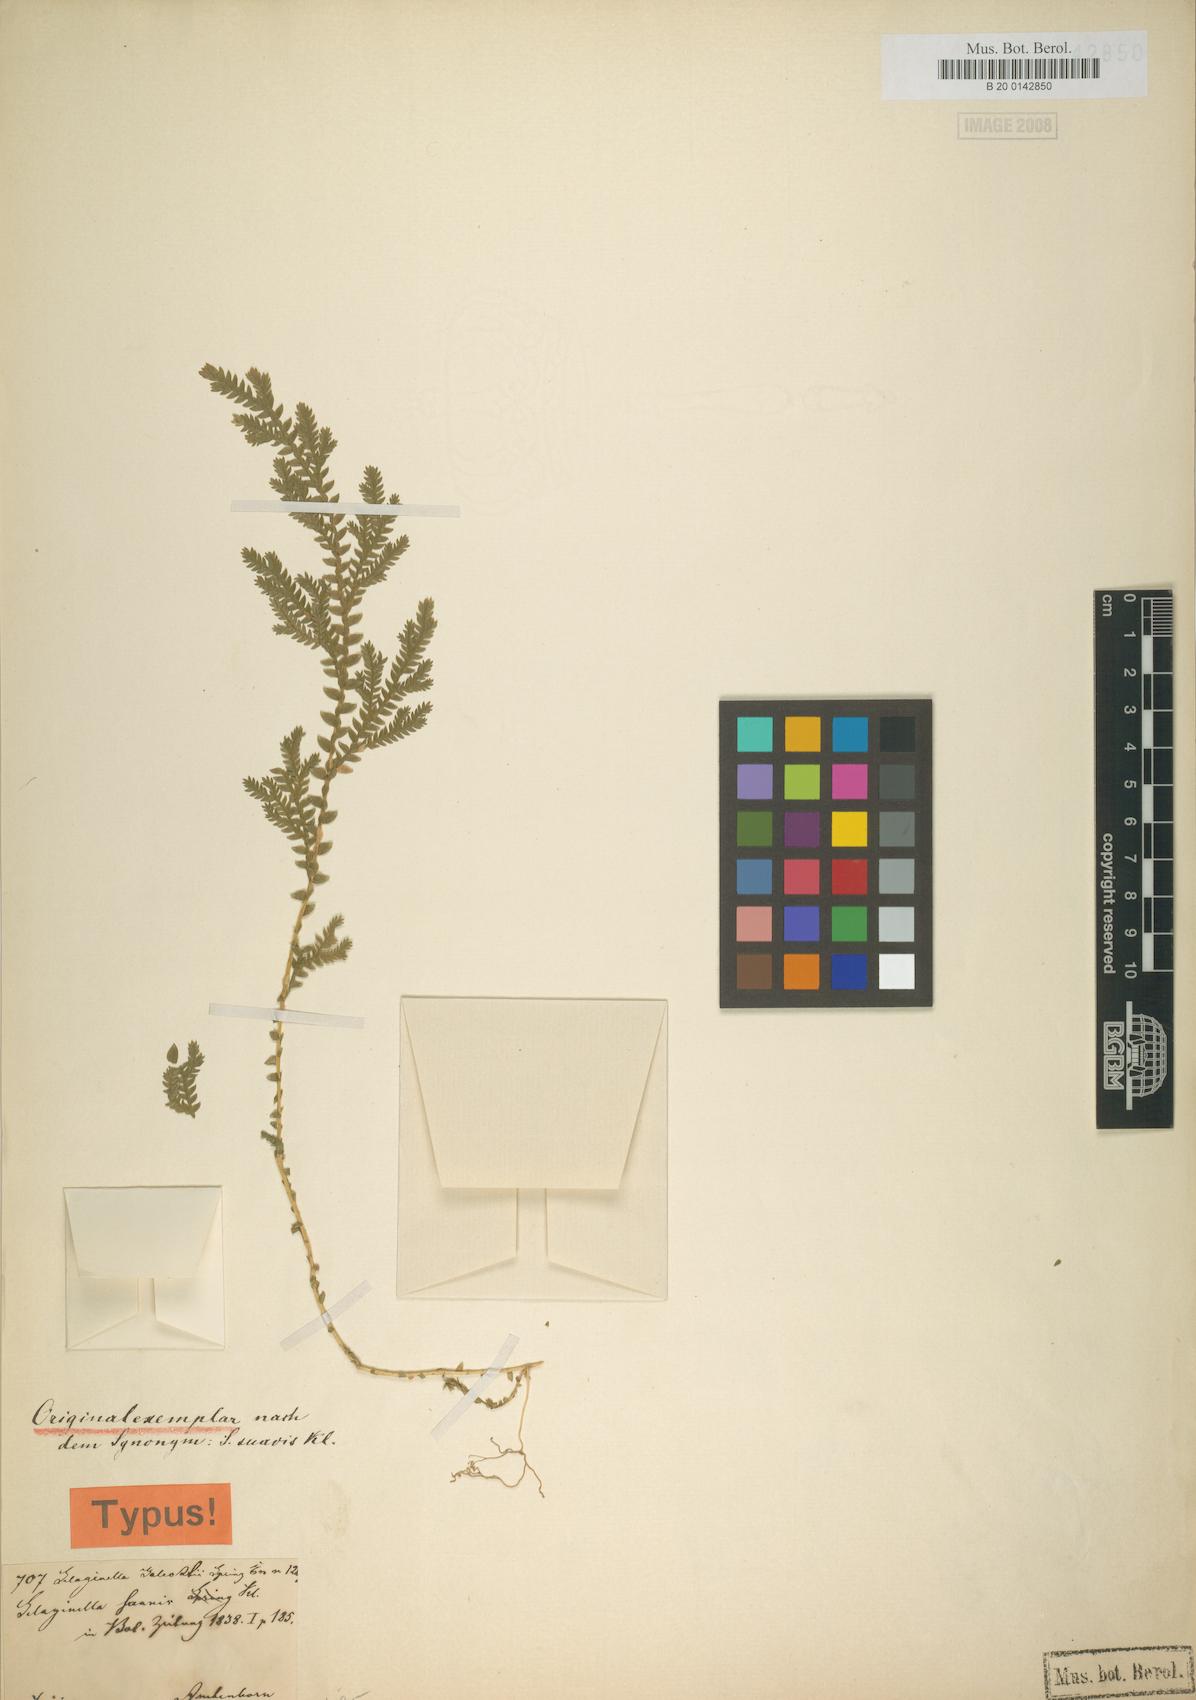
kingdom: Plantae
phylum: Tracheophyta
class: Lycopodiopsida
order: Selaginellales
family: Selaginellaceae
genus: Selaginella
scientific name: Selaginella stellata
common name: Starry spikemoss
